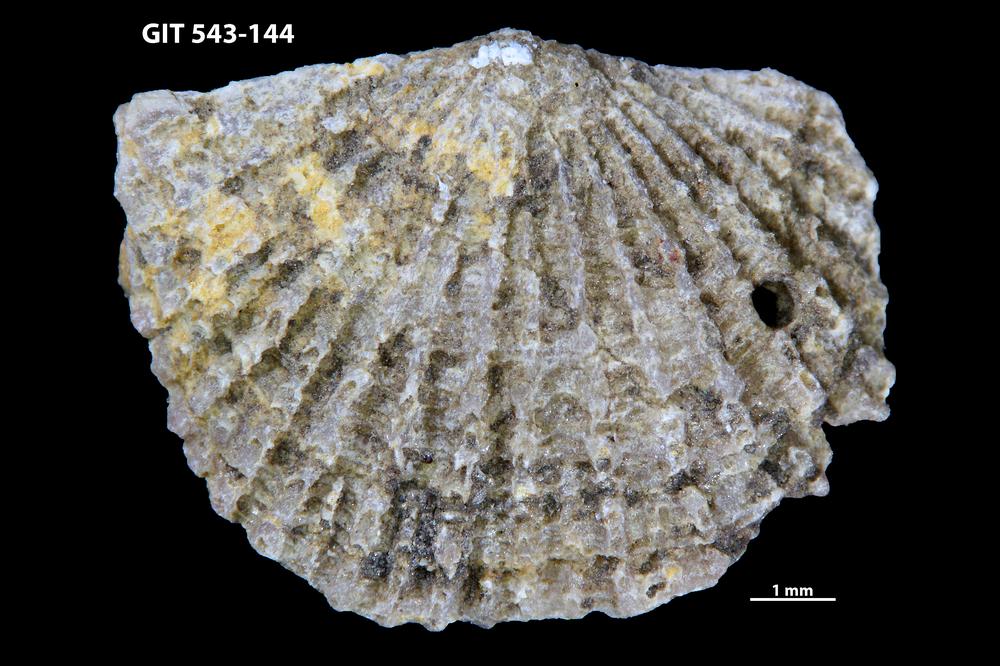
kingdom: Animalia
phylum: Brachiopoda
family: Gonambonitidae
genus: Estlandia
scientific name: Estlandia Orthisina marginata
